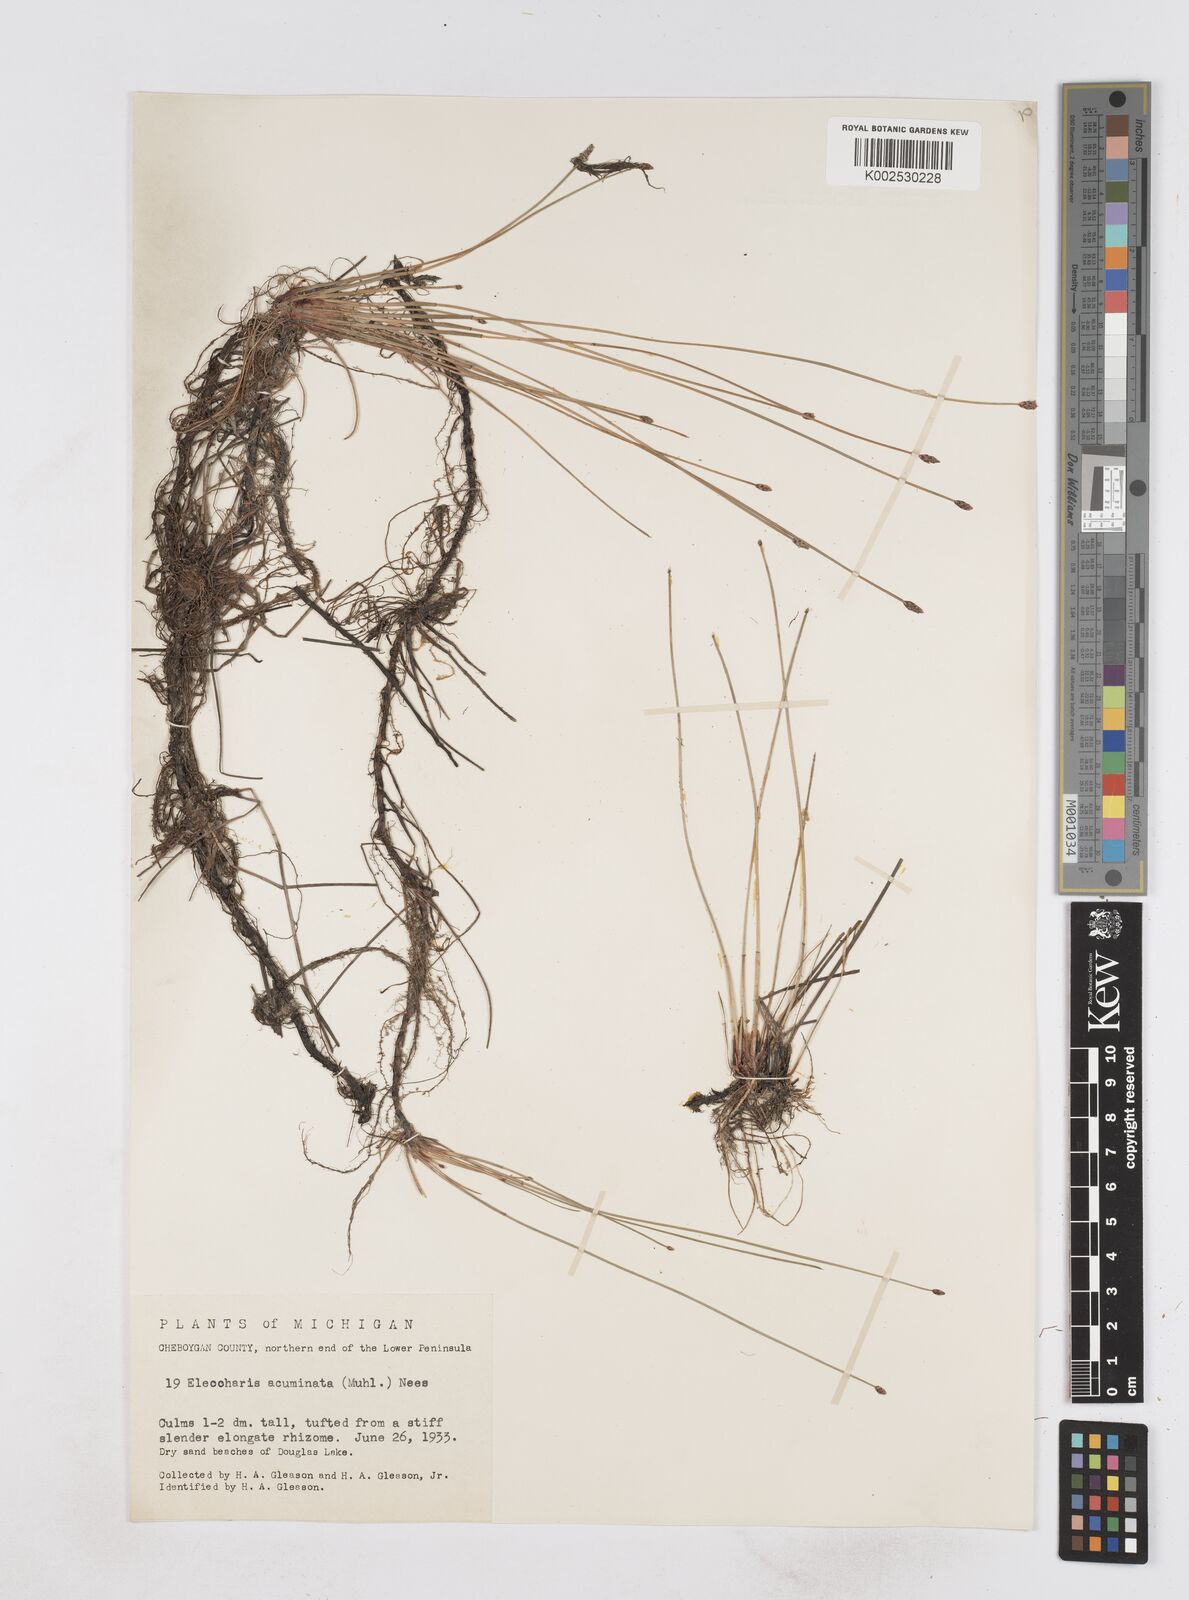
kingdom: Plantae
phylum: Tracheophyta
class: Liliopsida
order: Poales
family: Cyperaceae
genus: Eleocharis
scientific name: Eleocharis compressa
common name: Flat-stem spike-rush
